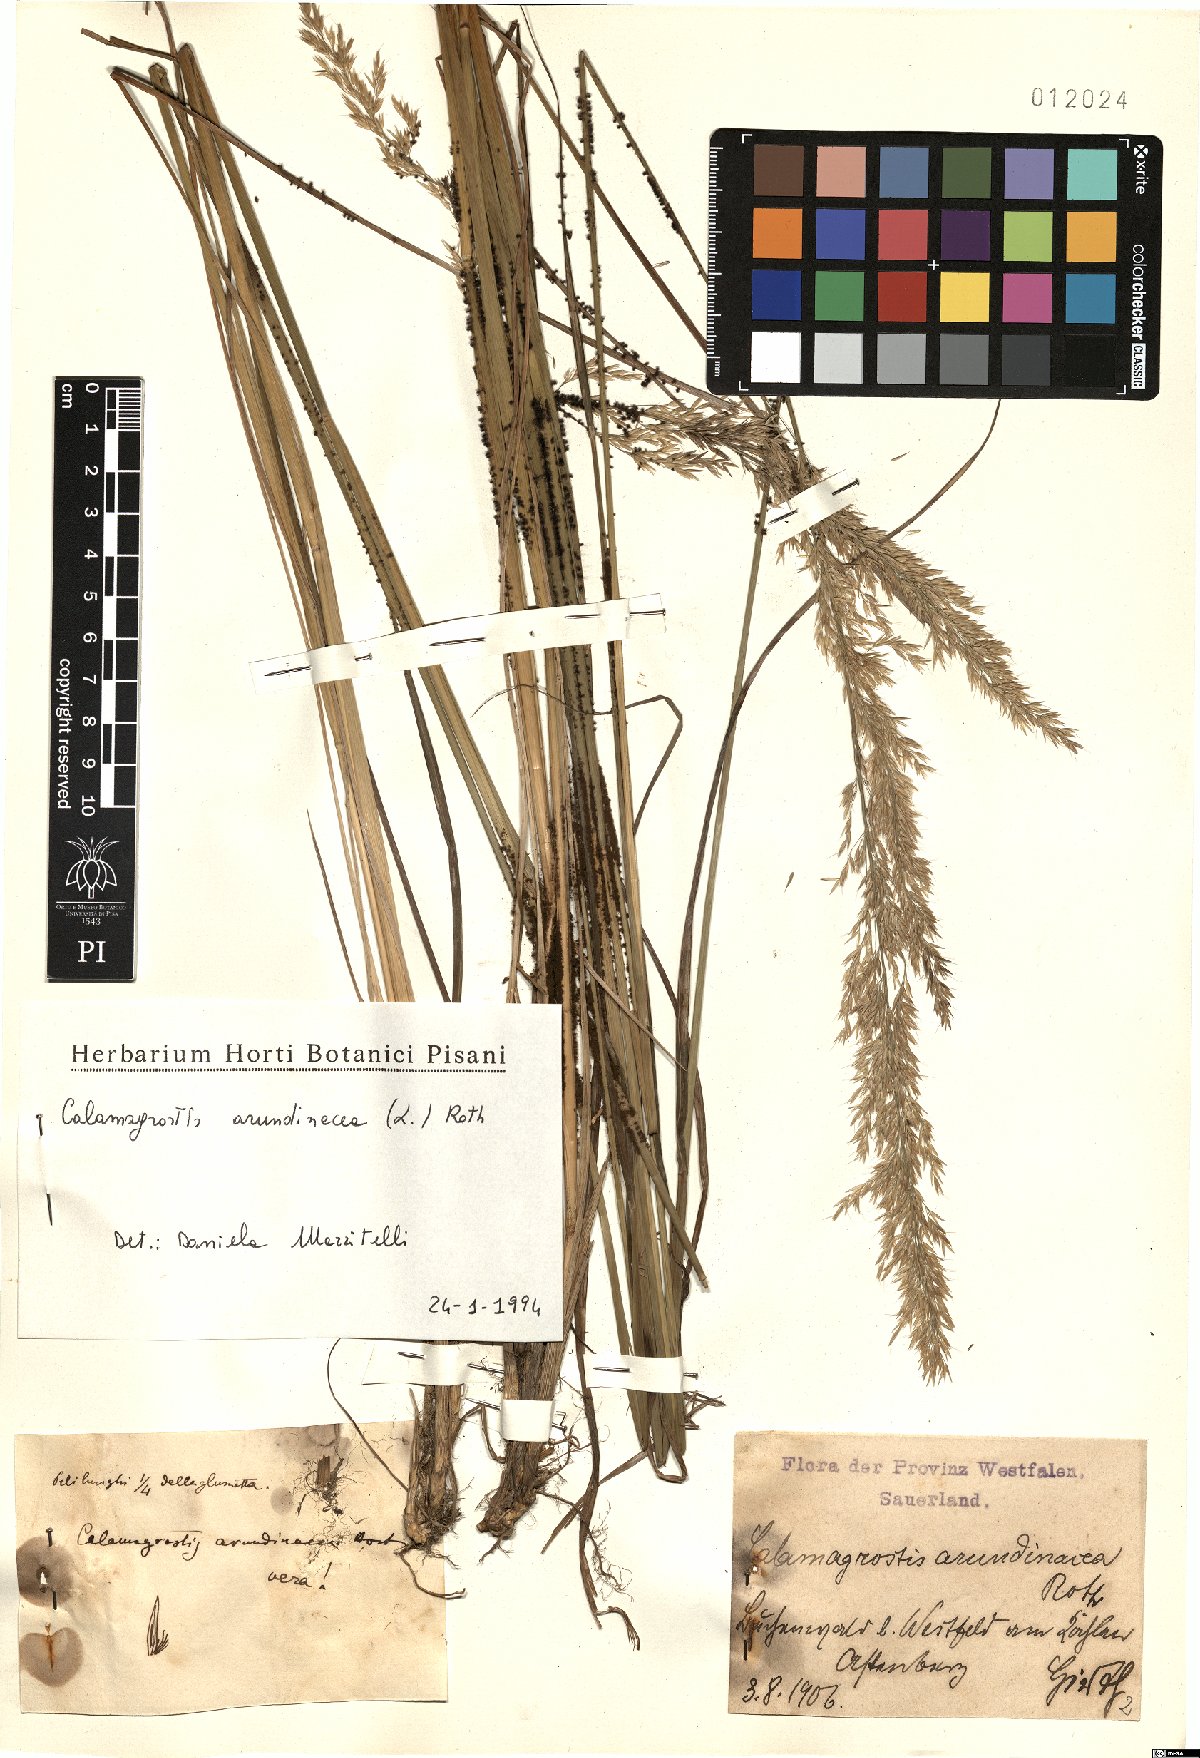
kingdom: Plantae
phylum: Tracheophyta
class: Liliopsida
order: Poales
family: Poaceae
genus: Calamagrostis
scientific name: Calamagrostis arundinacea
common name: Metskastik
